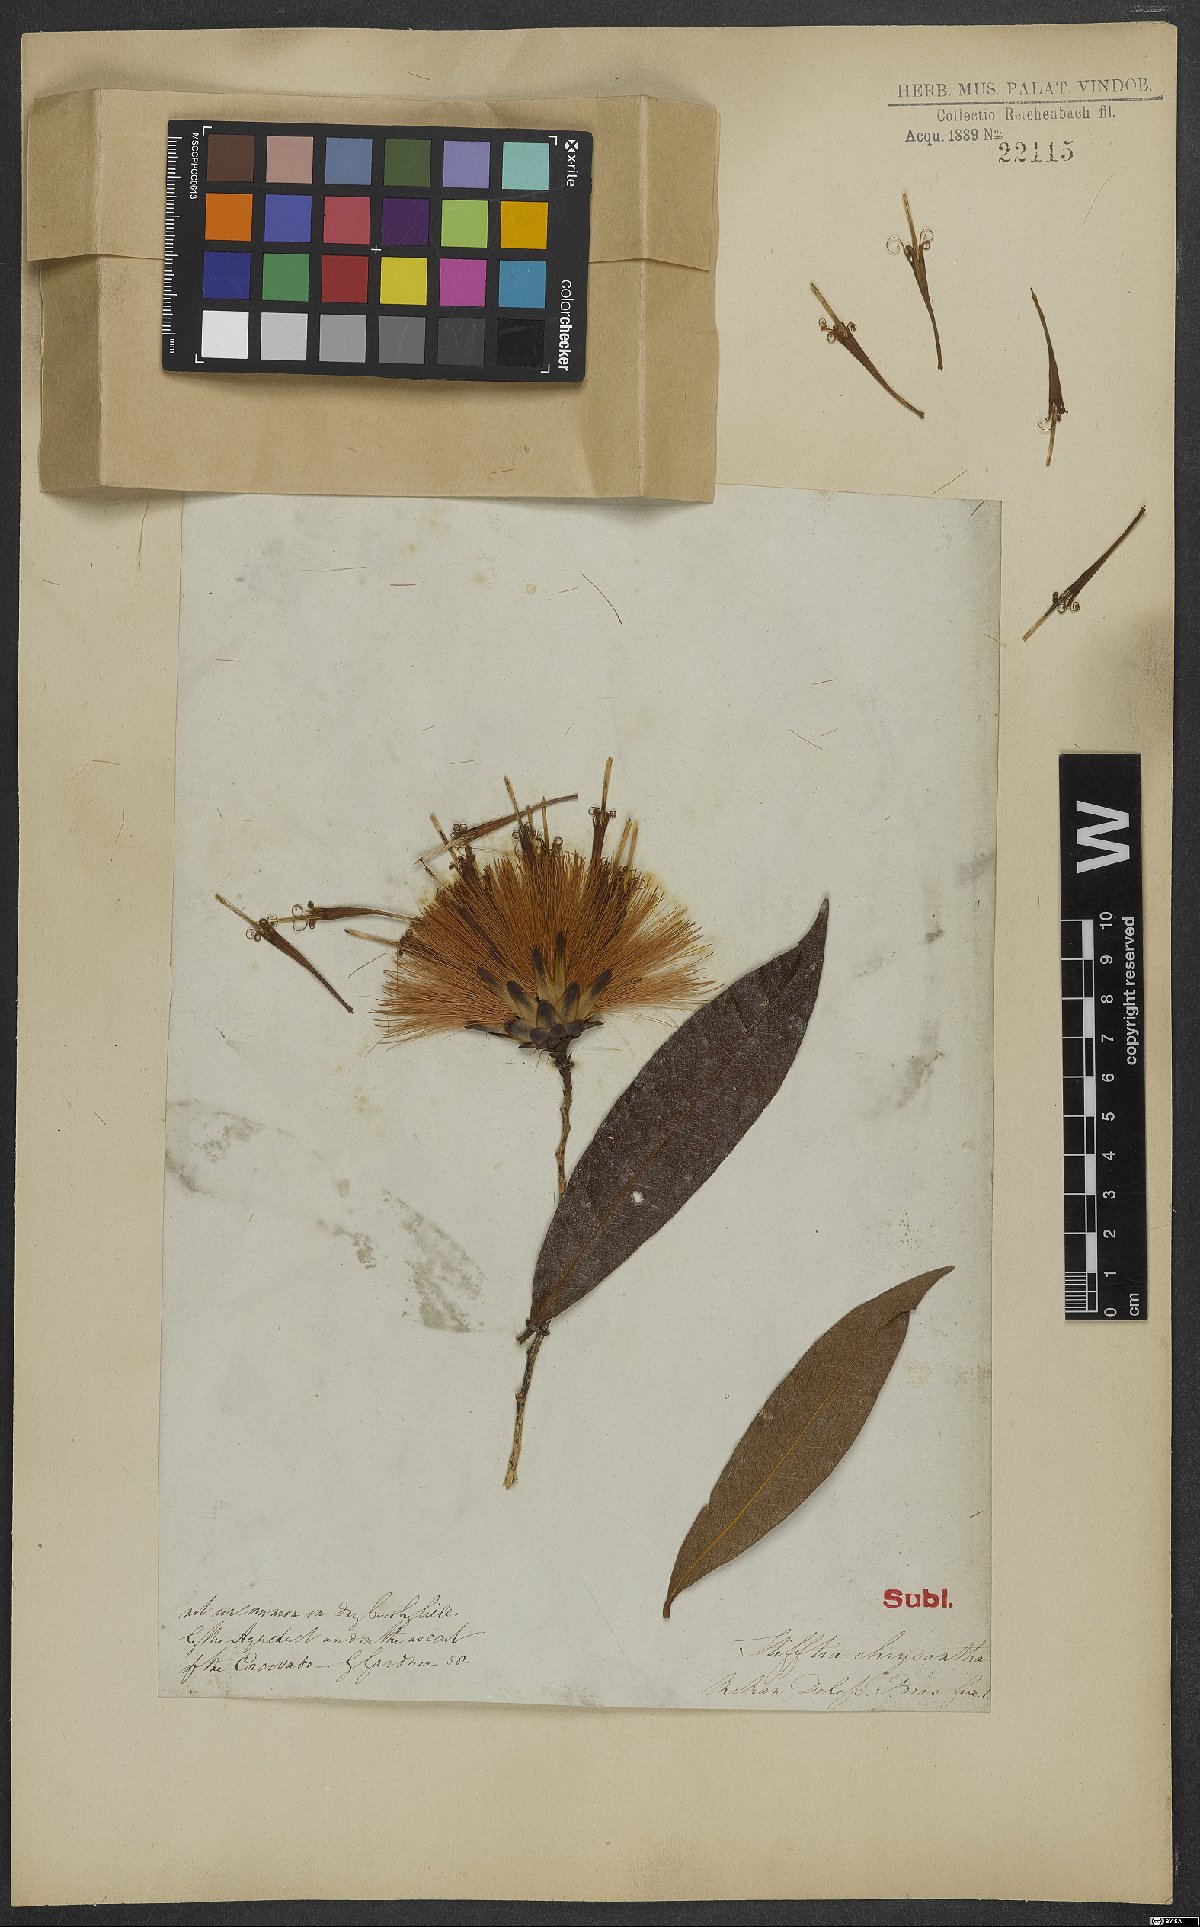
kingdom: Plantae
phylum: Tracheophyta
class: Magnoliopsida
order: Asterales
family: Asteraceae
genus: Stifftia
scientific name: Stifftia chrysantha
